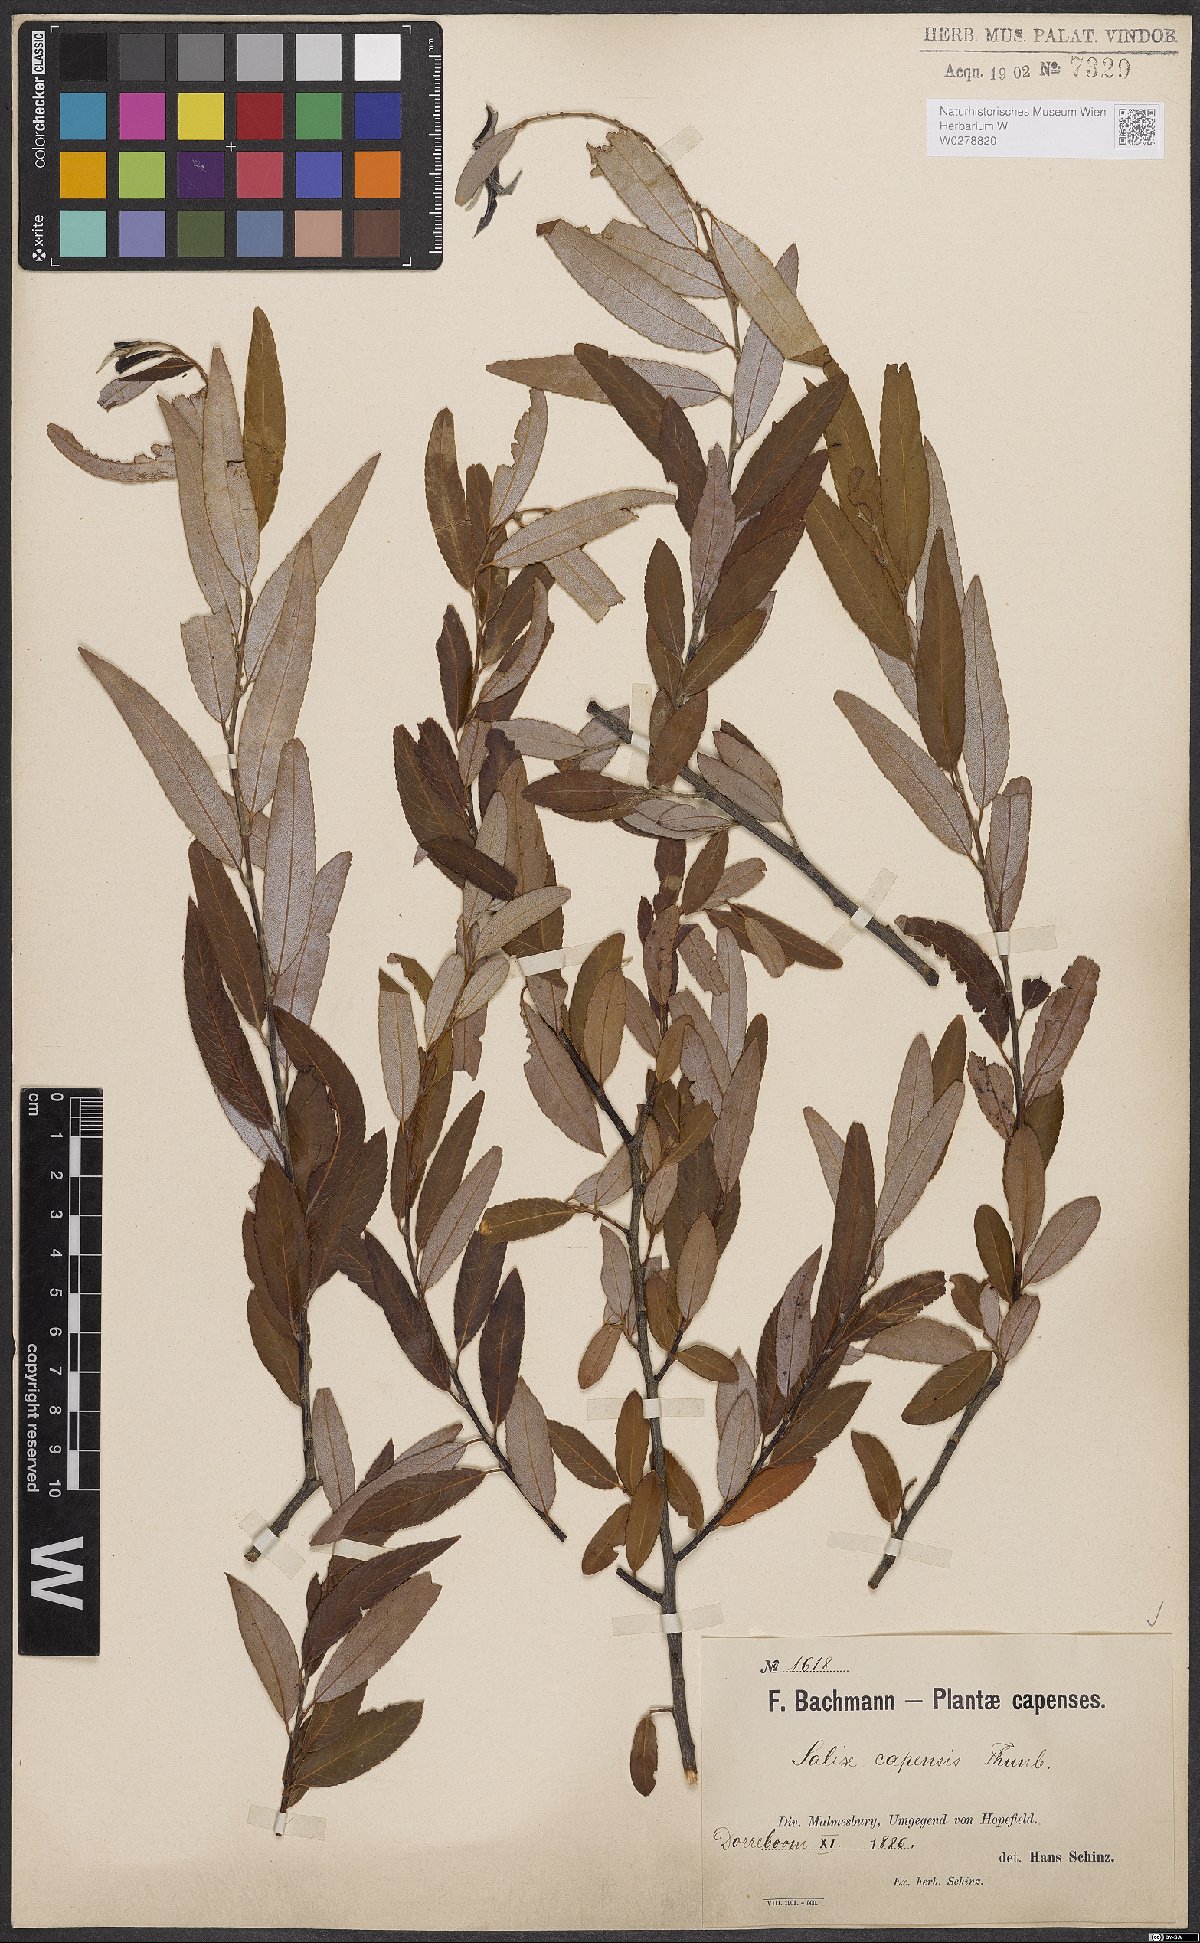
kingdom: Plantae
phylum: Tracheophyta
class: Magnoliopsida
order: Malpighiales
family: Salicaceae
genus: Salix
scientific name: Salix mucronata
